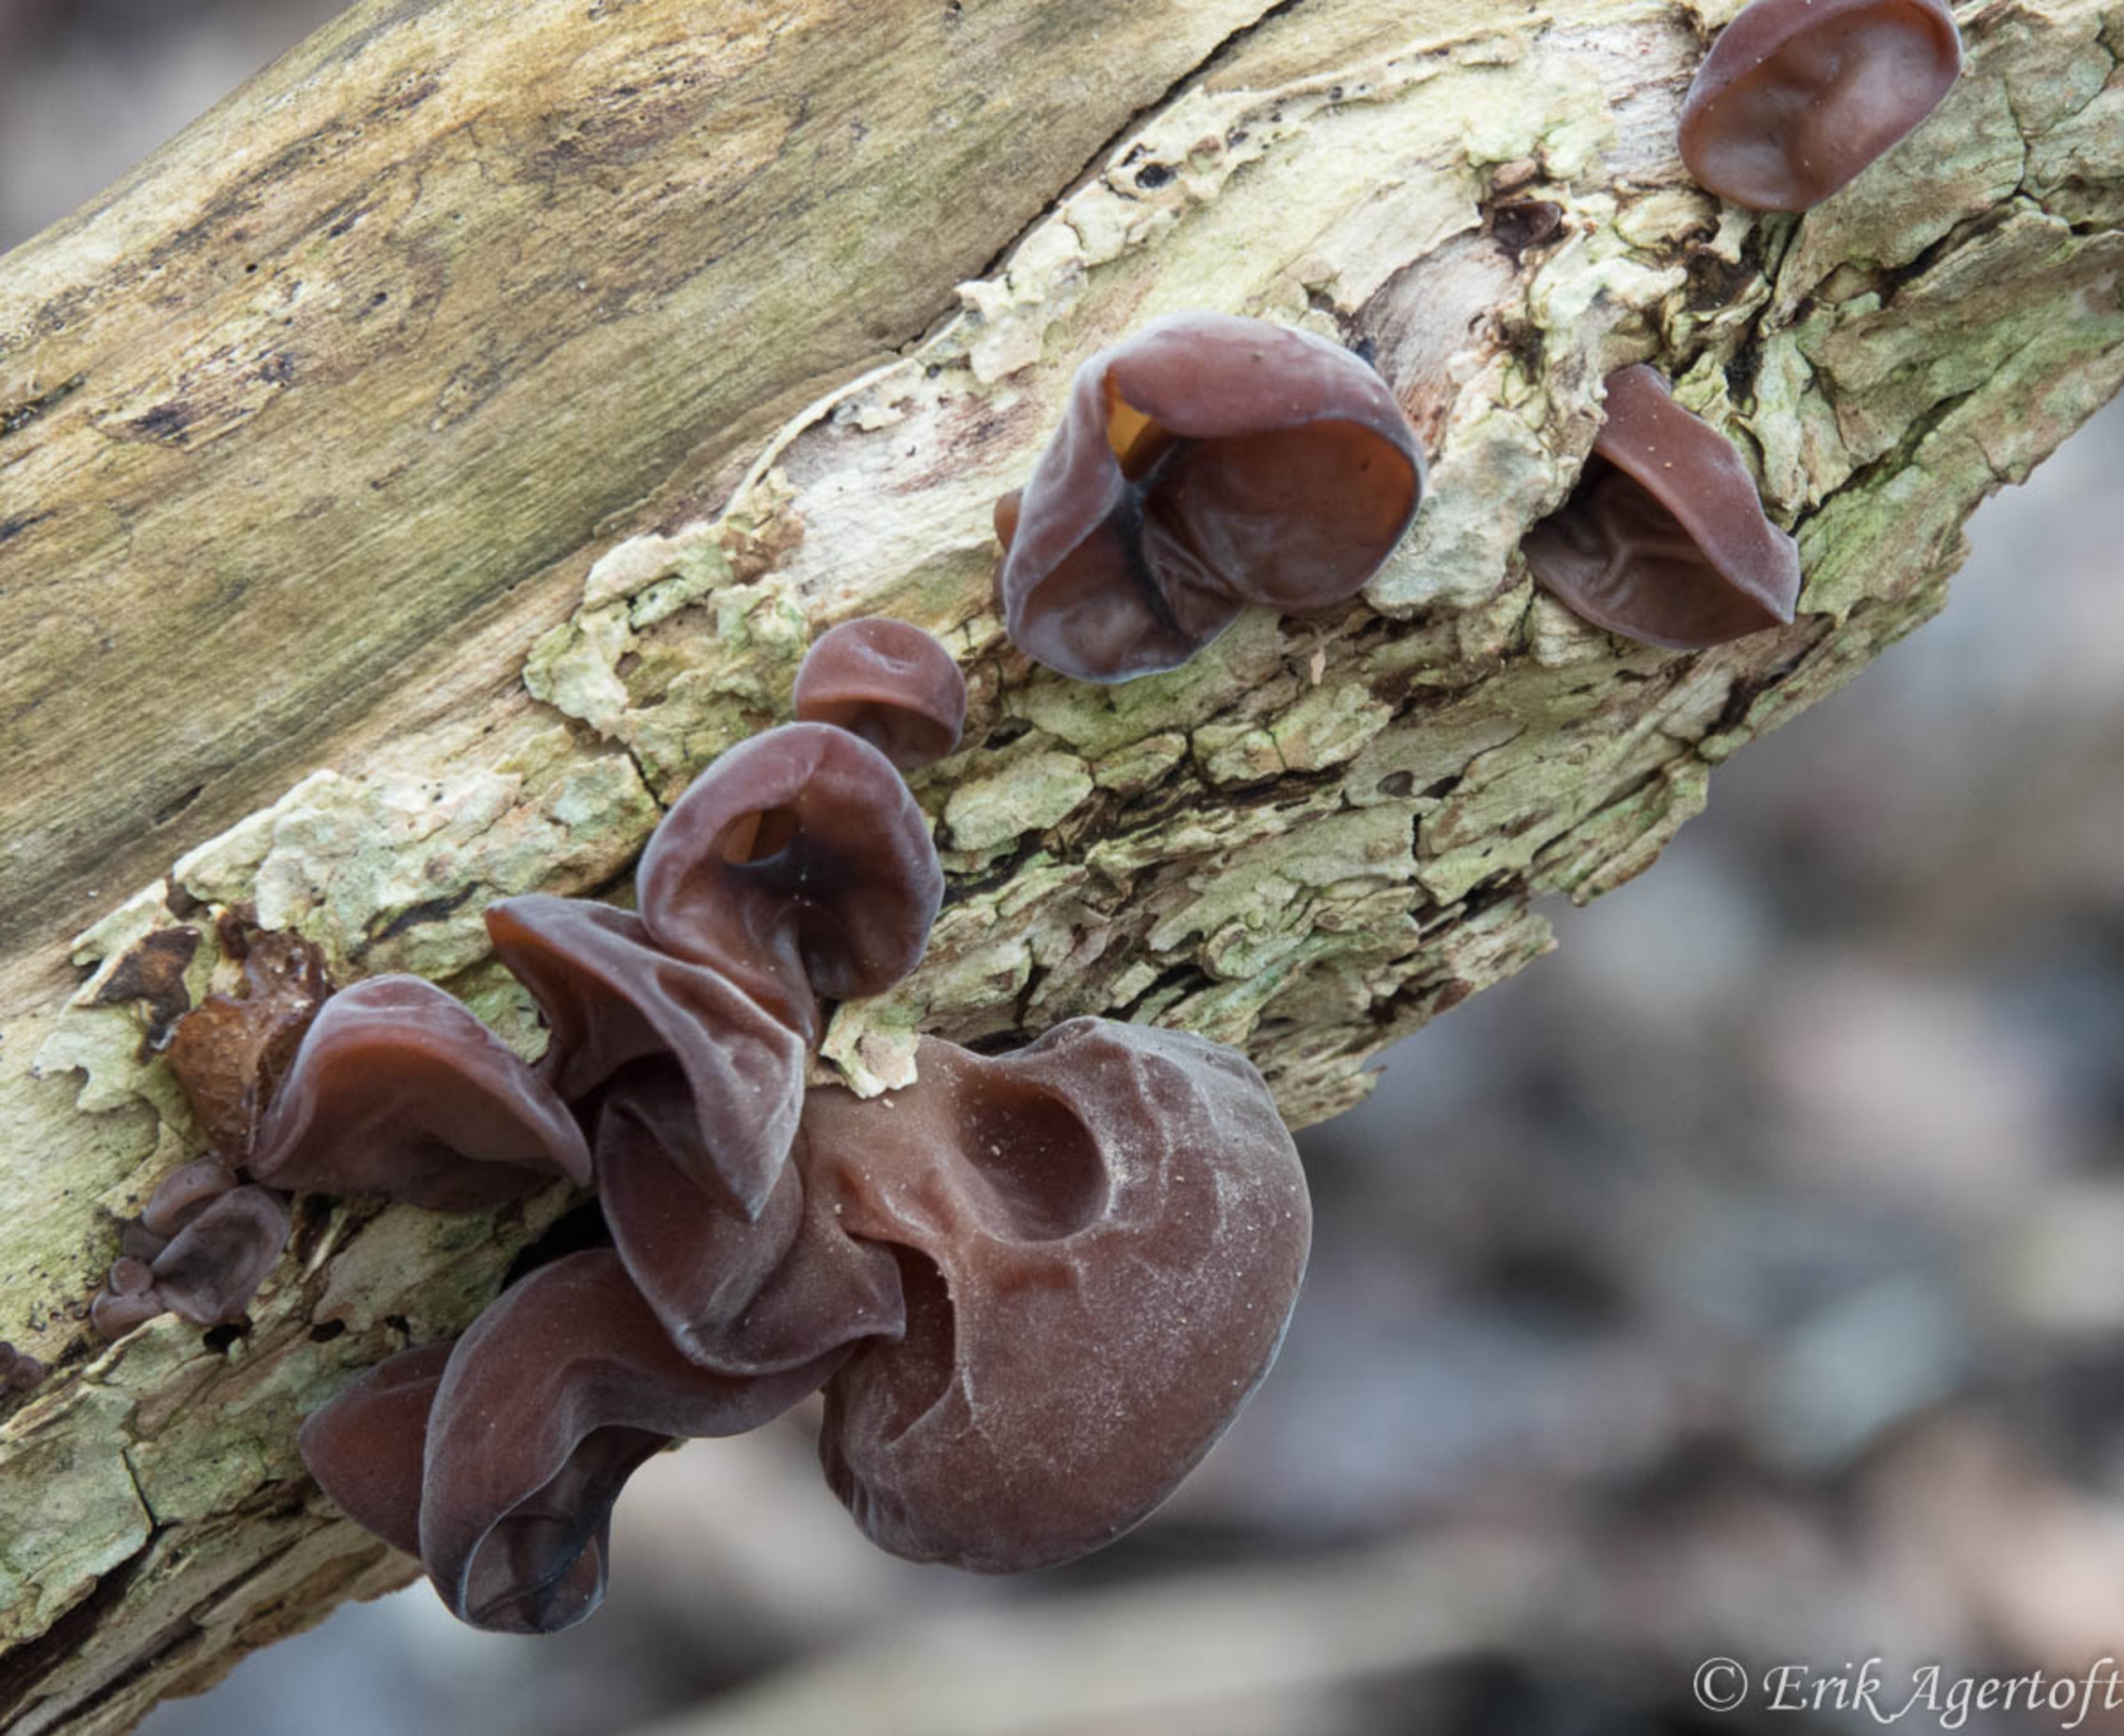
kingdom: Fungi
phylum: Basidiomycota
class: Agaricomycetes
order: Auriculariales
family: Auriculariaceae
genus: Auricularia
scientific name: Auricularia auricula-judae
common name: Almindelig judasøre
